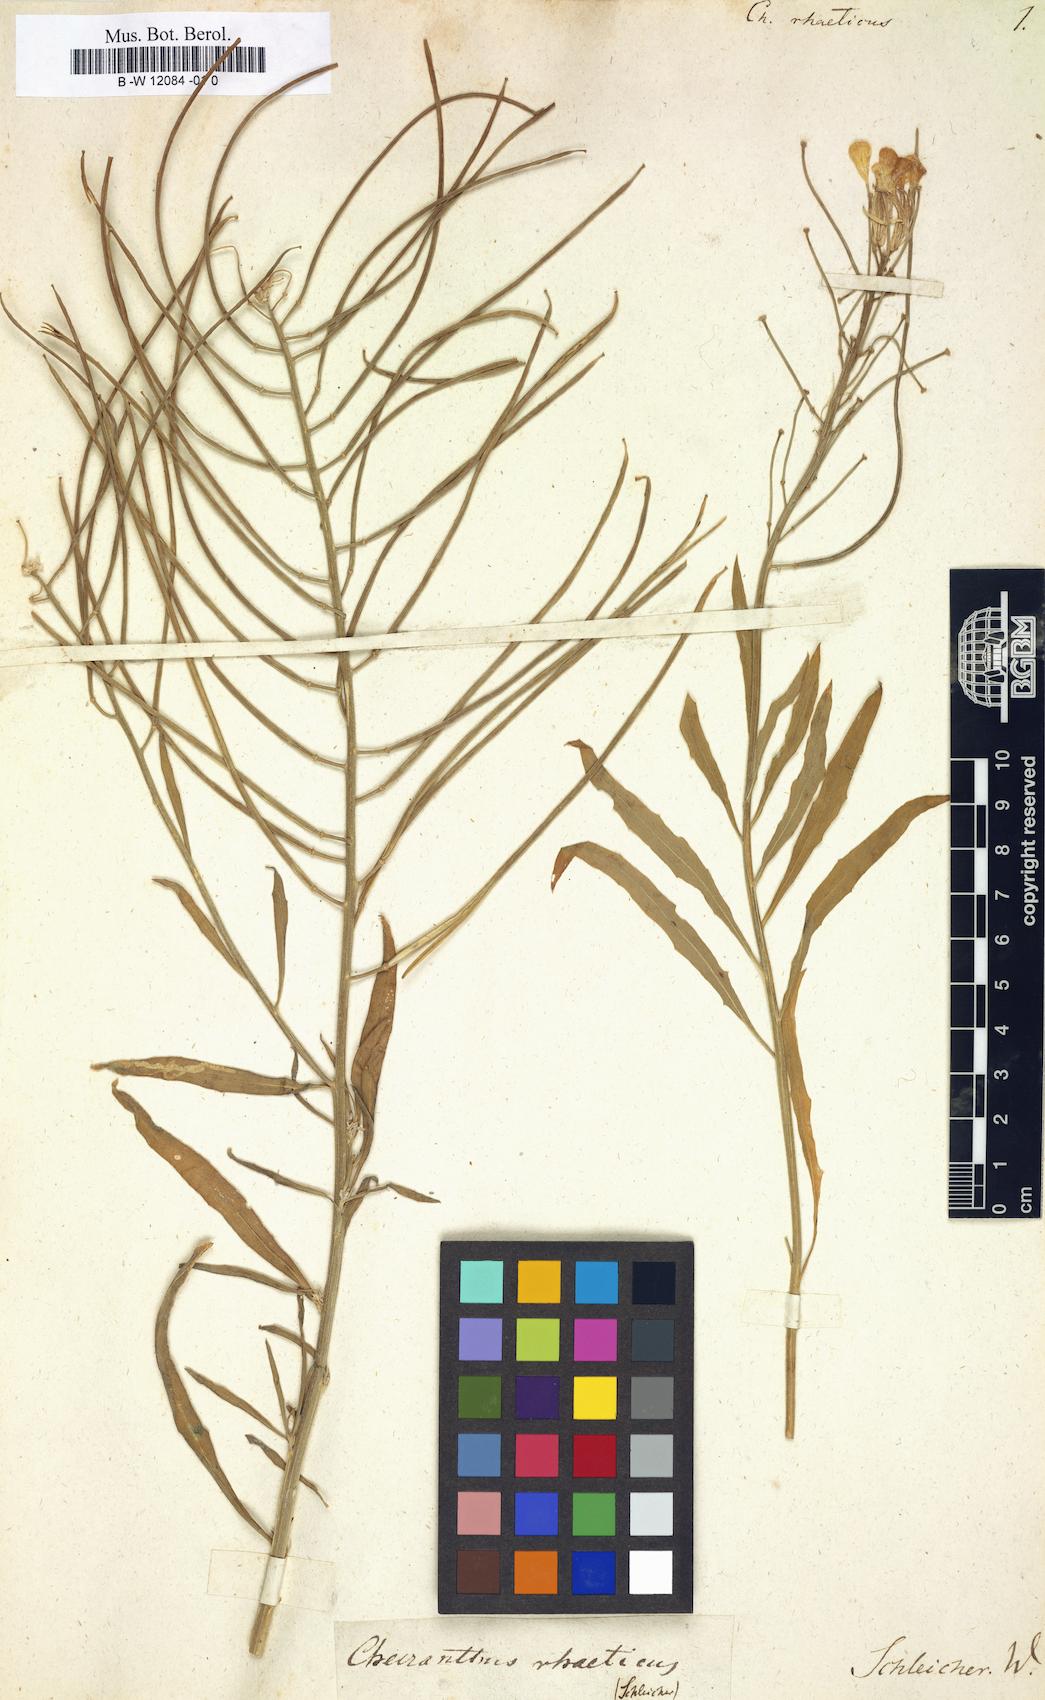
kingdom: Plantae
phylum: Tracheophyta
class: Magnoliopsida
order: Brassicales
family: Brassicaceae
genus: Erysimum
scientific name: Erysimum rhaeticum
